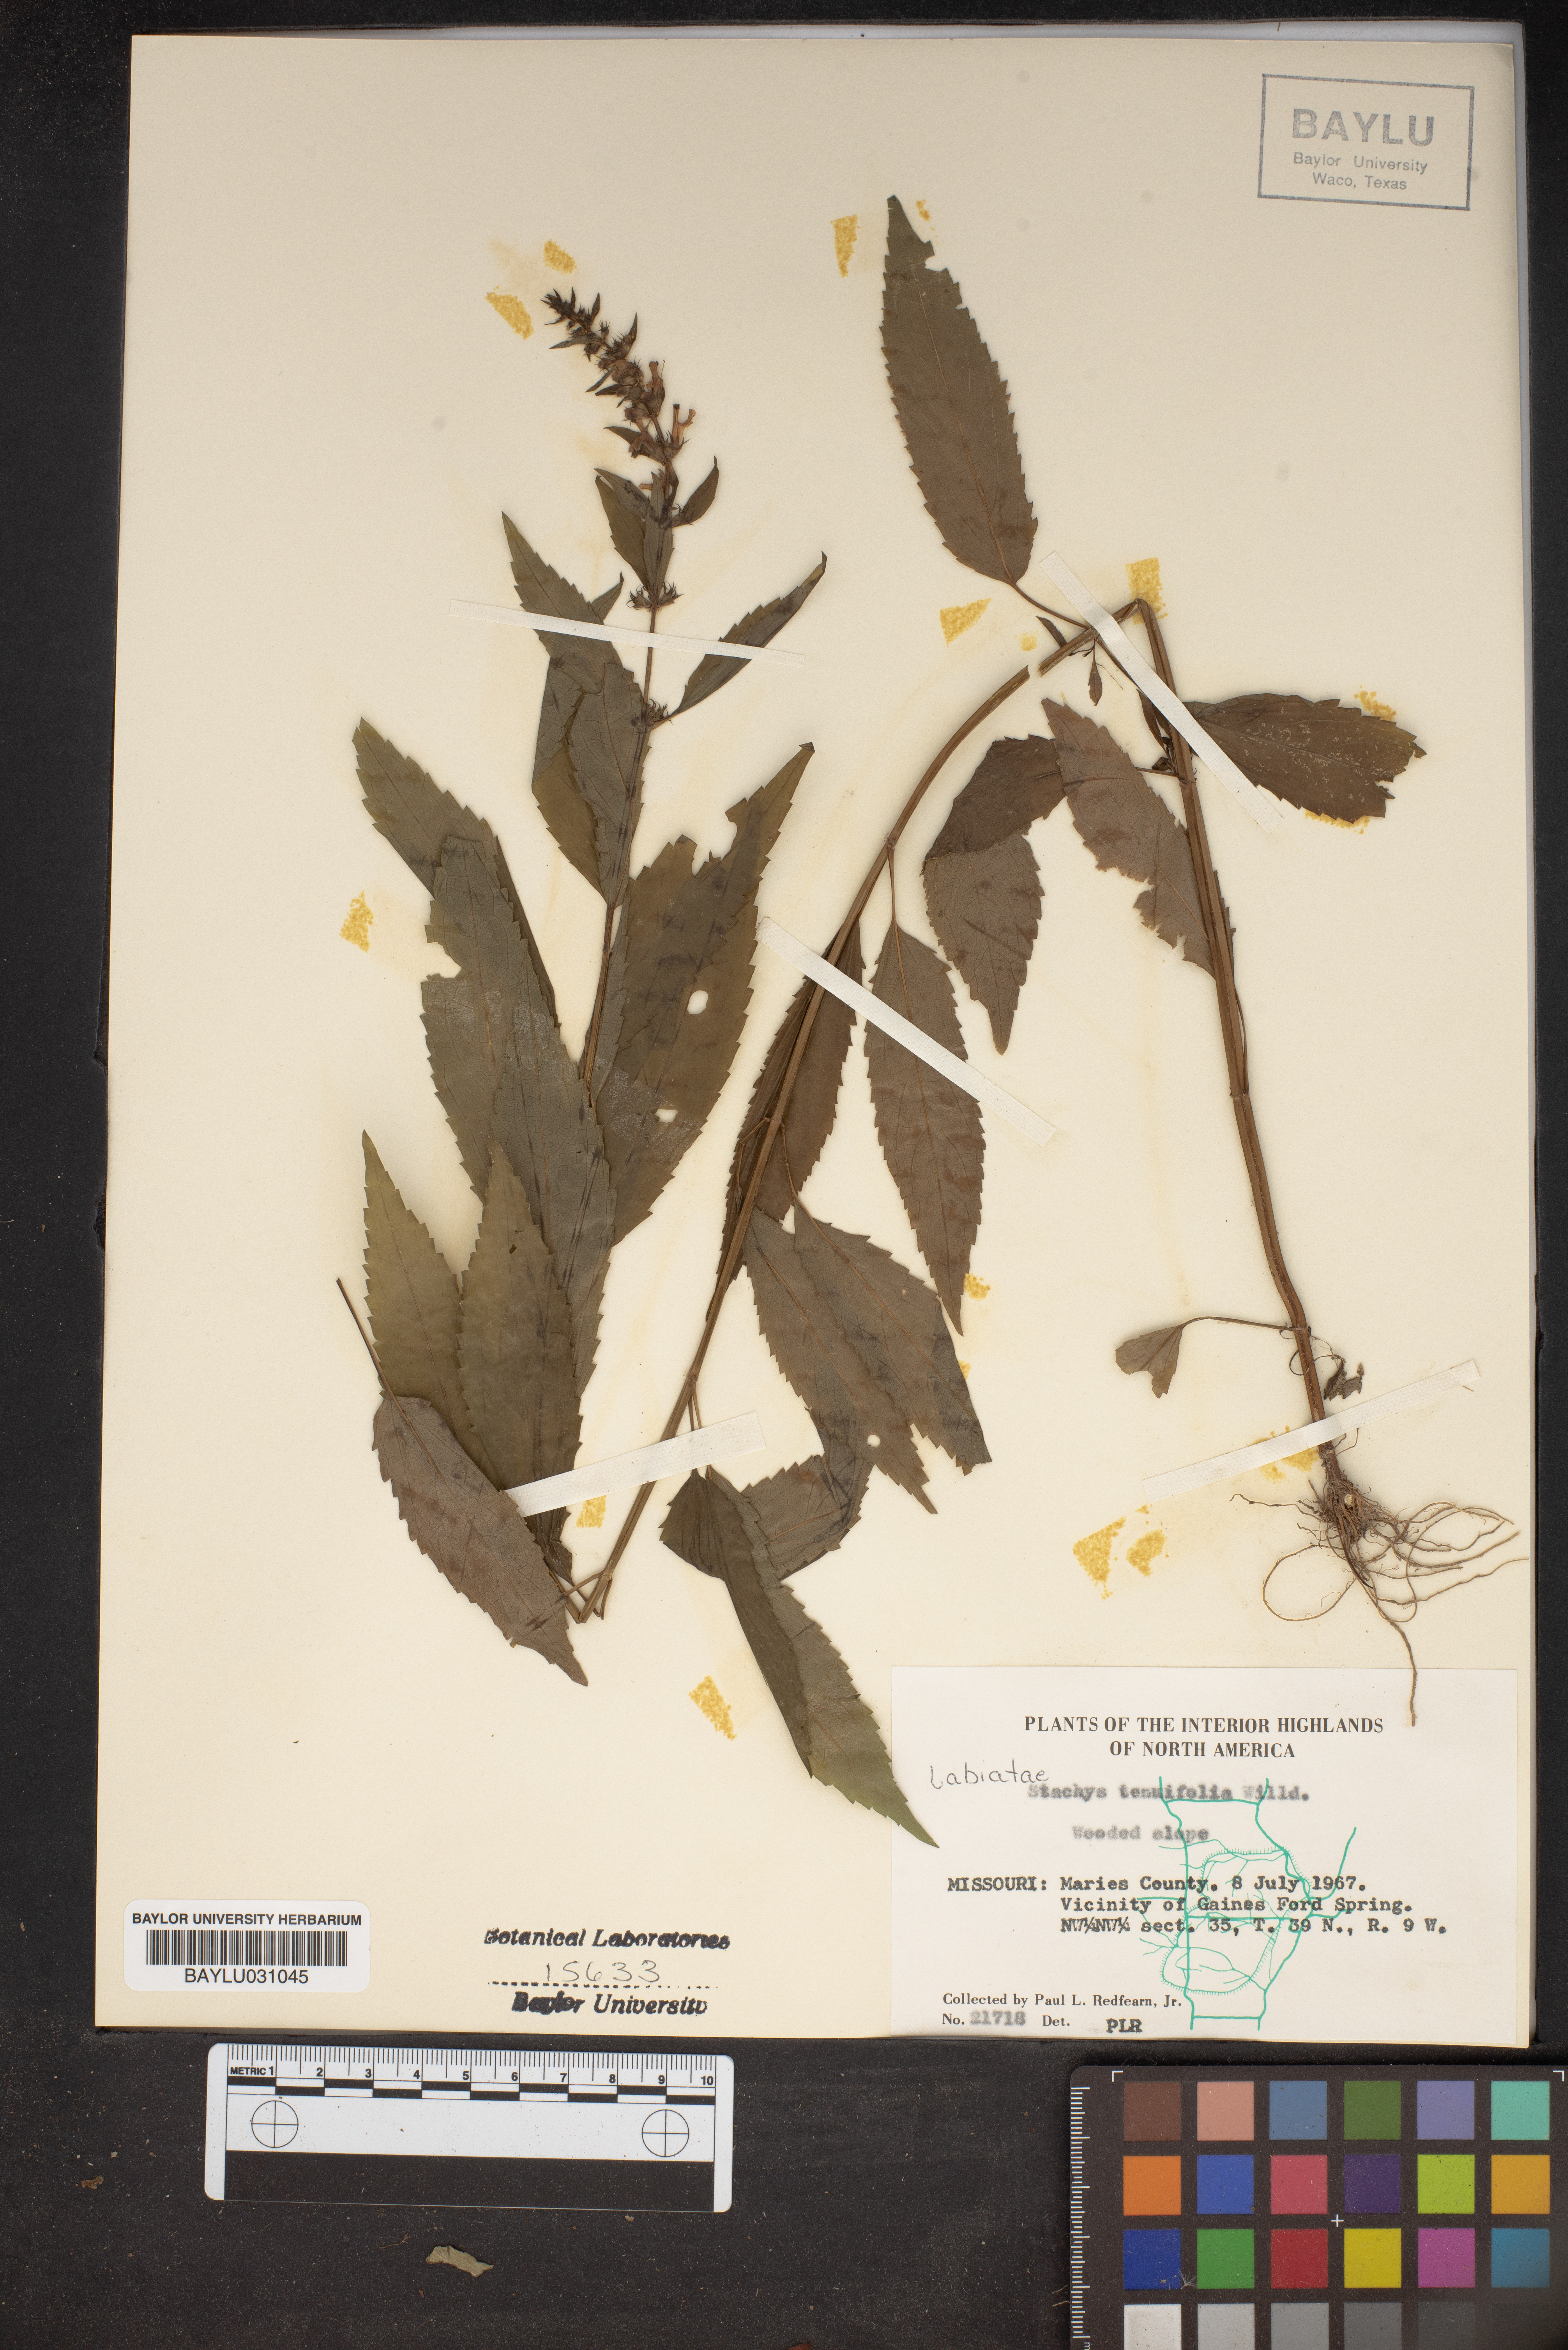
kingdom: Plantae
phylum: Tracheophyta
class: Magnoliopsida
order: Lamiales
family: Lamiaceae
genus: Stachys
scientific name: Stachys tenuifolia
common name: Smooth hedge-nettle
